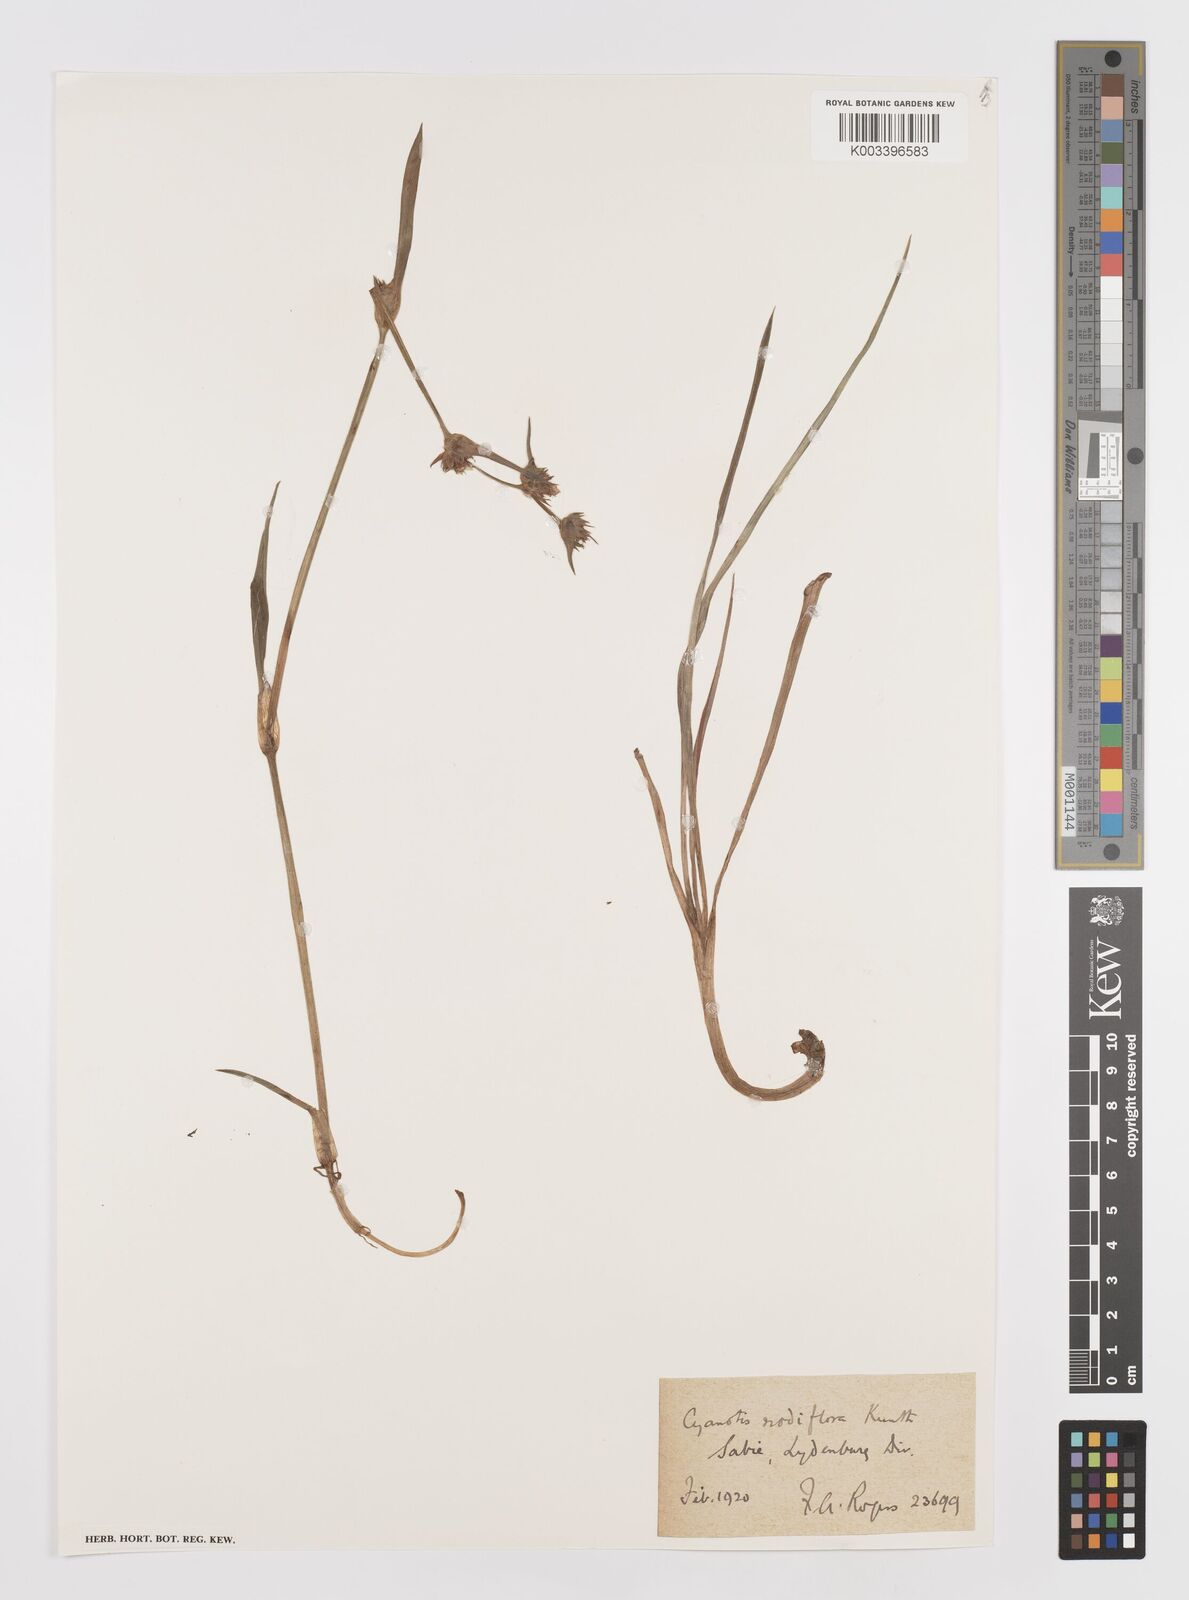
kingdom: Plantae
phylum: Tracheophyta
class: Liliopsida
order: Commelinales
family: Commelinaceae
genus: Cyanotis
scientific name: Cyanotis speciosa
